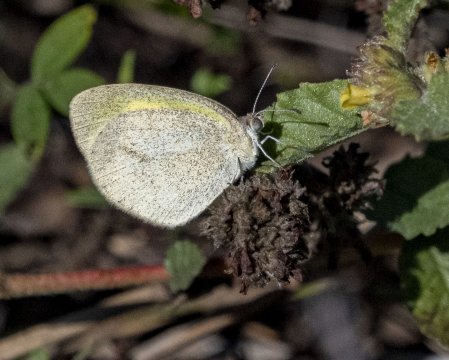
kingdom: Animalia
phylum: Arthropoda
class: Insecta
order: Lepidoptera
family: Pieridae
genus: Eurema
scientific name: Eurema daira
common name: Barred Yellow
